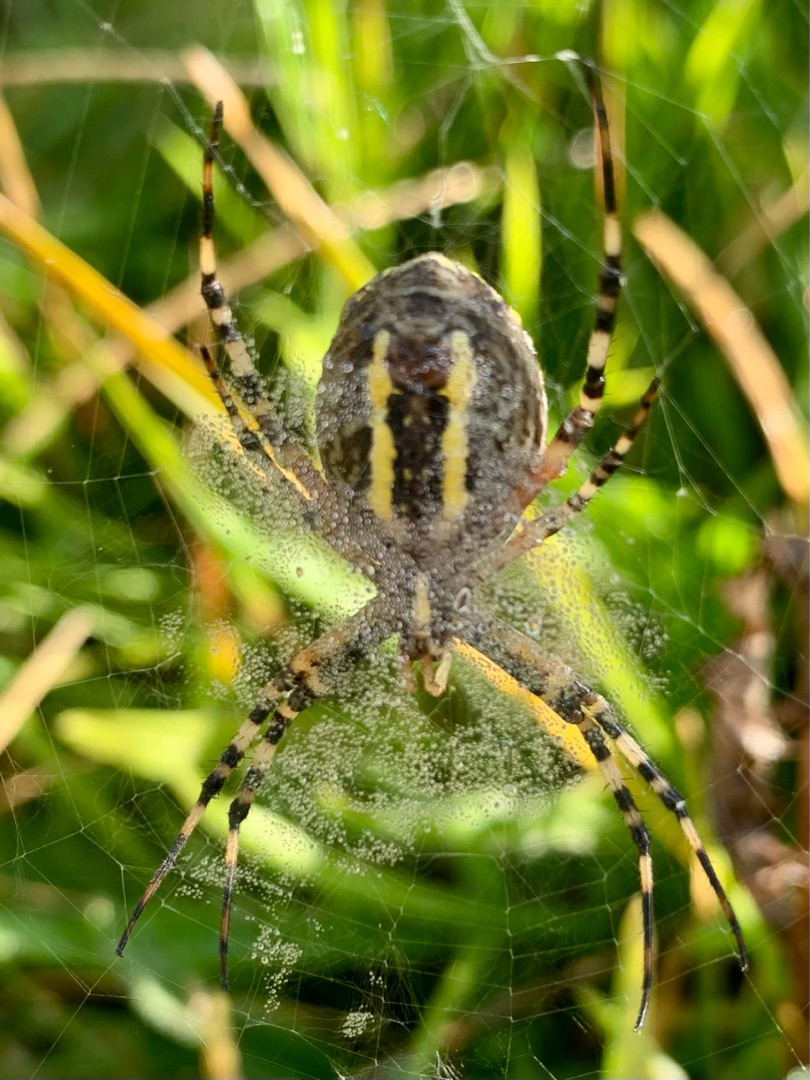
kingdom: Animalia
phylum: Arthropoda
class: Arachnida
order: Araneae
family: Araneidae
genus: Argiope
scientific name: Argiope bruennichi
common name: Hvepseedderkop
